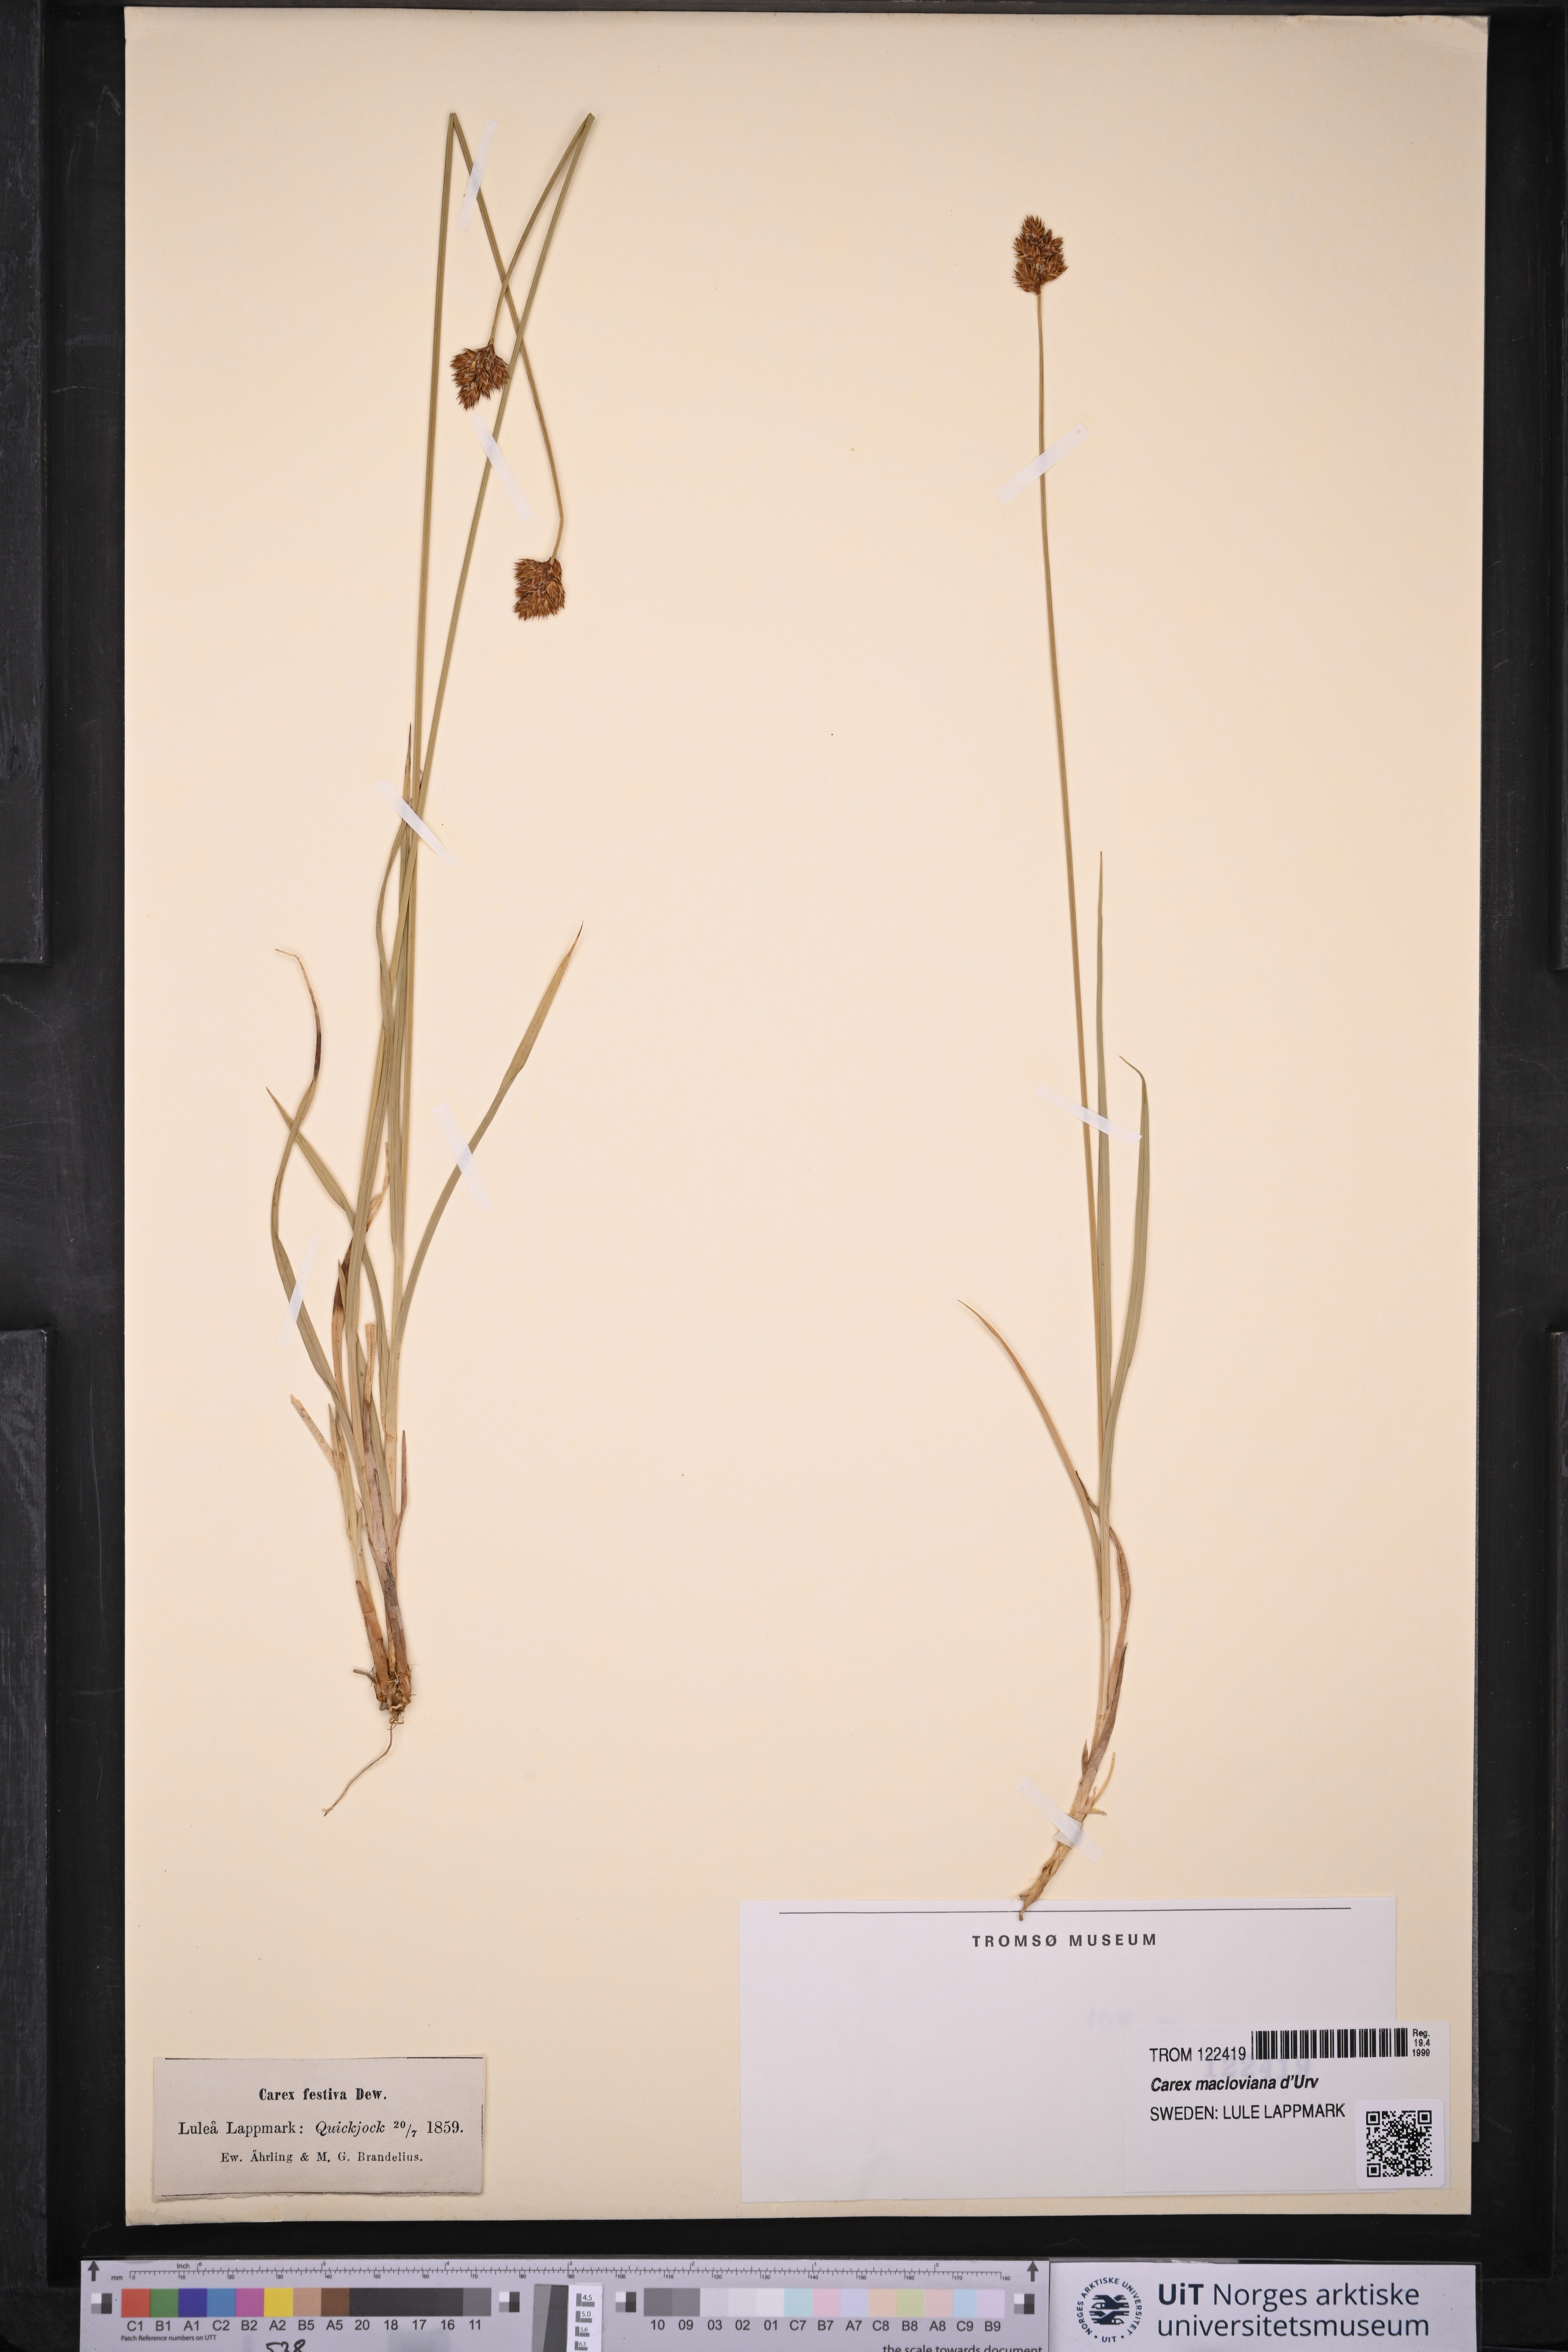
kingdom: Plantae
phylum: Tracheophyta
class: Liliopsida
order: Poales
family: Cyperaceae
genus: Carex
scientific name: Carex macloviana
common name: Falkland island sedge
